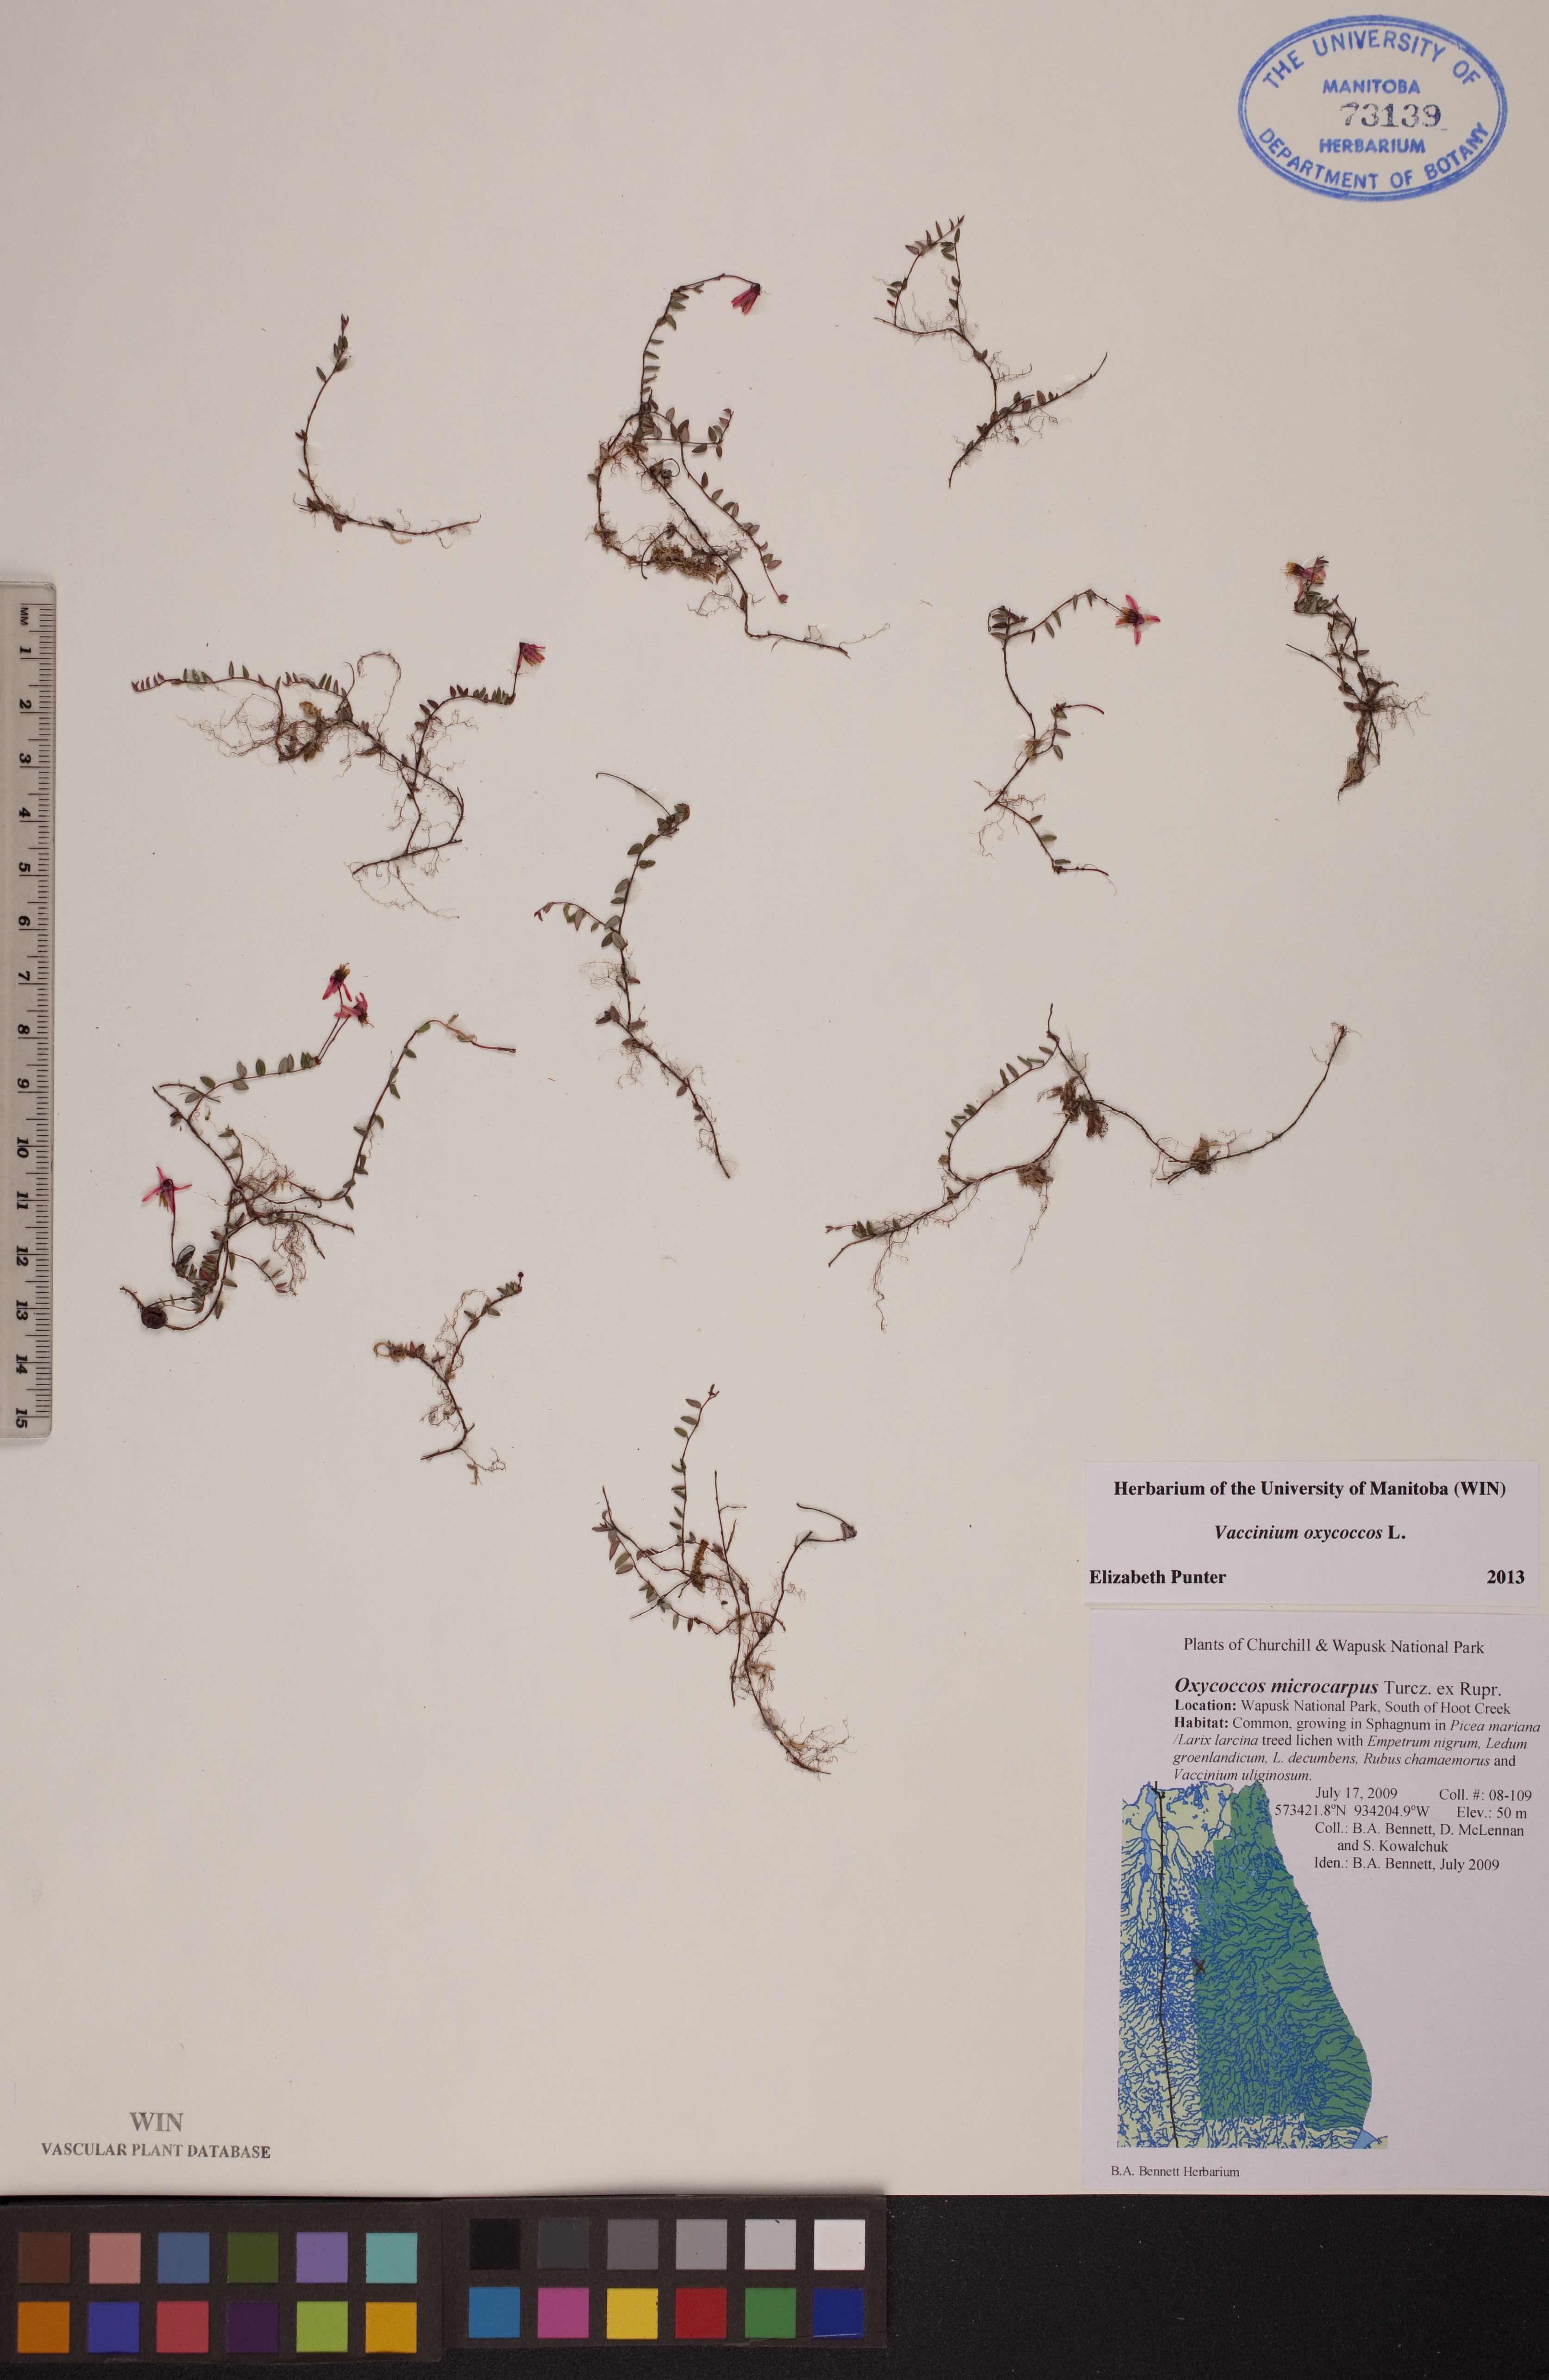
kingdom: Plantae
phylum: Tracheophyta
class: Magnoliopsida
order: Ericales
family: Ericaceae
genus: Vaccinium
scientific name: Vaccinium oxycoccos
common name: Cranberry
